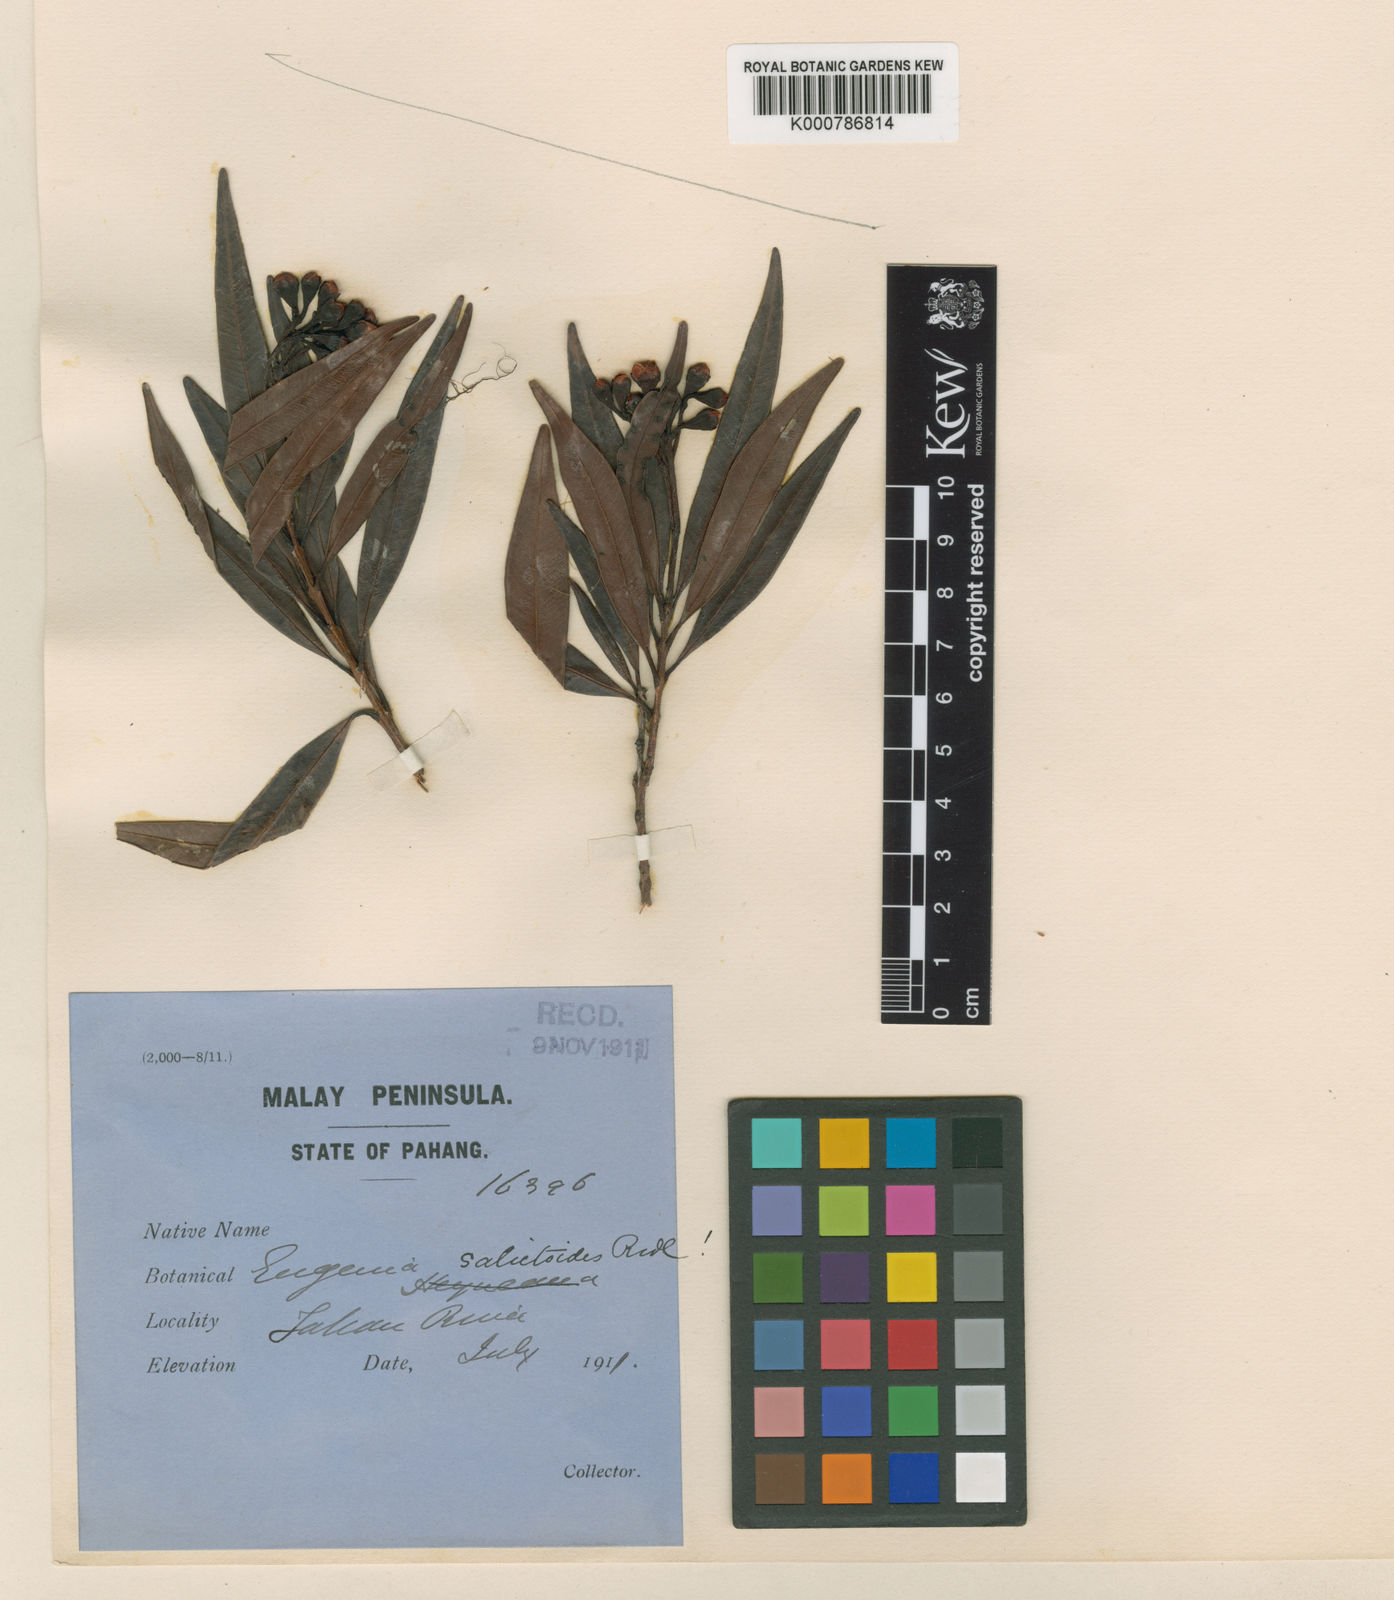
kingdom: Plantae
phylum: Tracheophyta
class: Magnoliopsida
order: Myrtales
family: Myrtaceae
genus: Syzygium
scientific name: Syzygium salictoides
